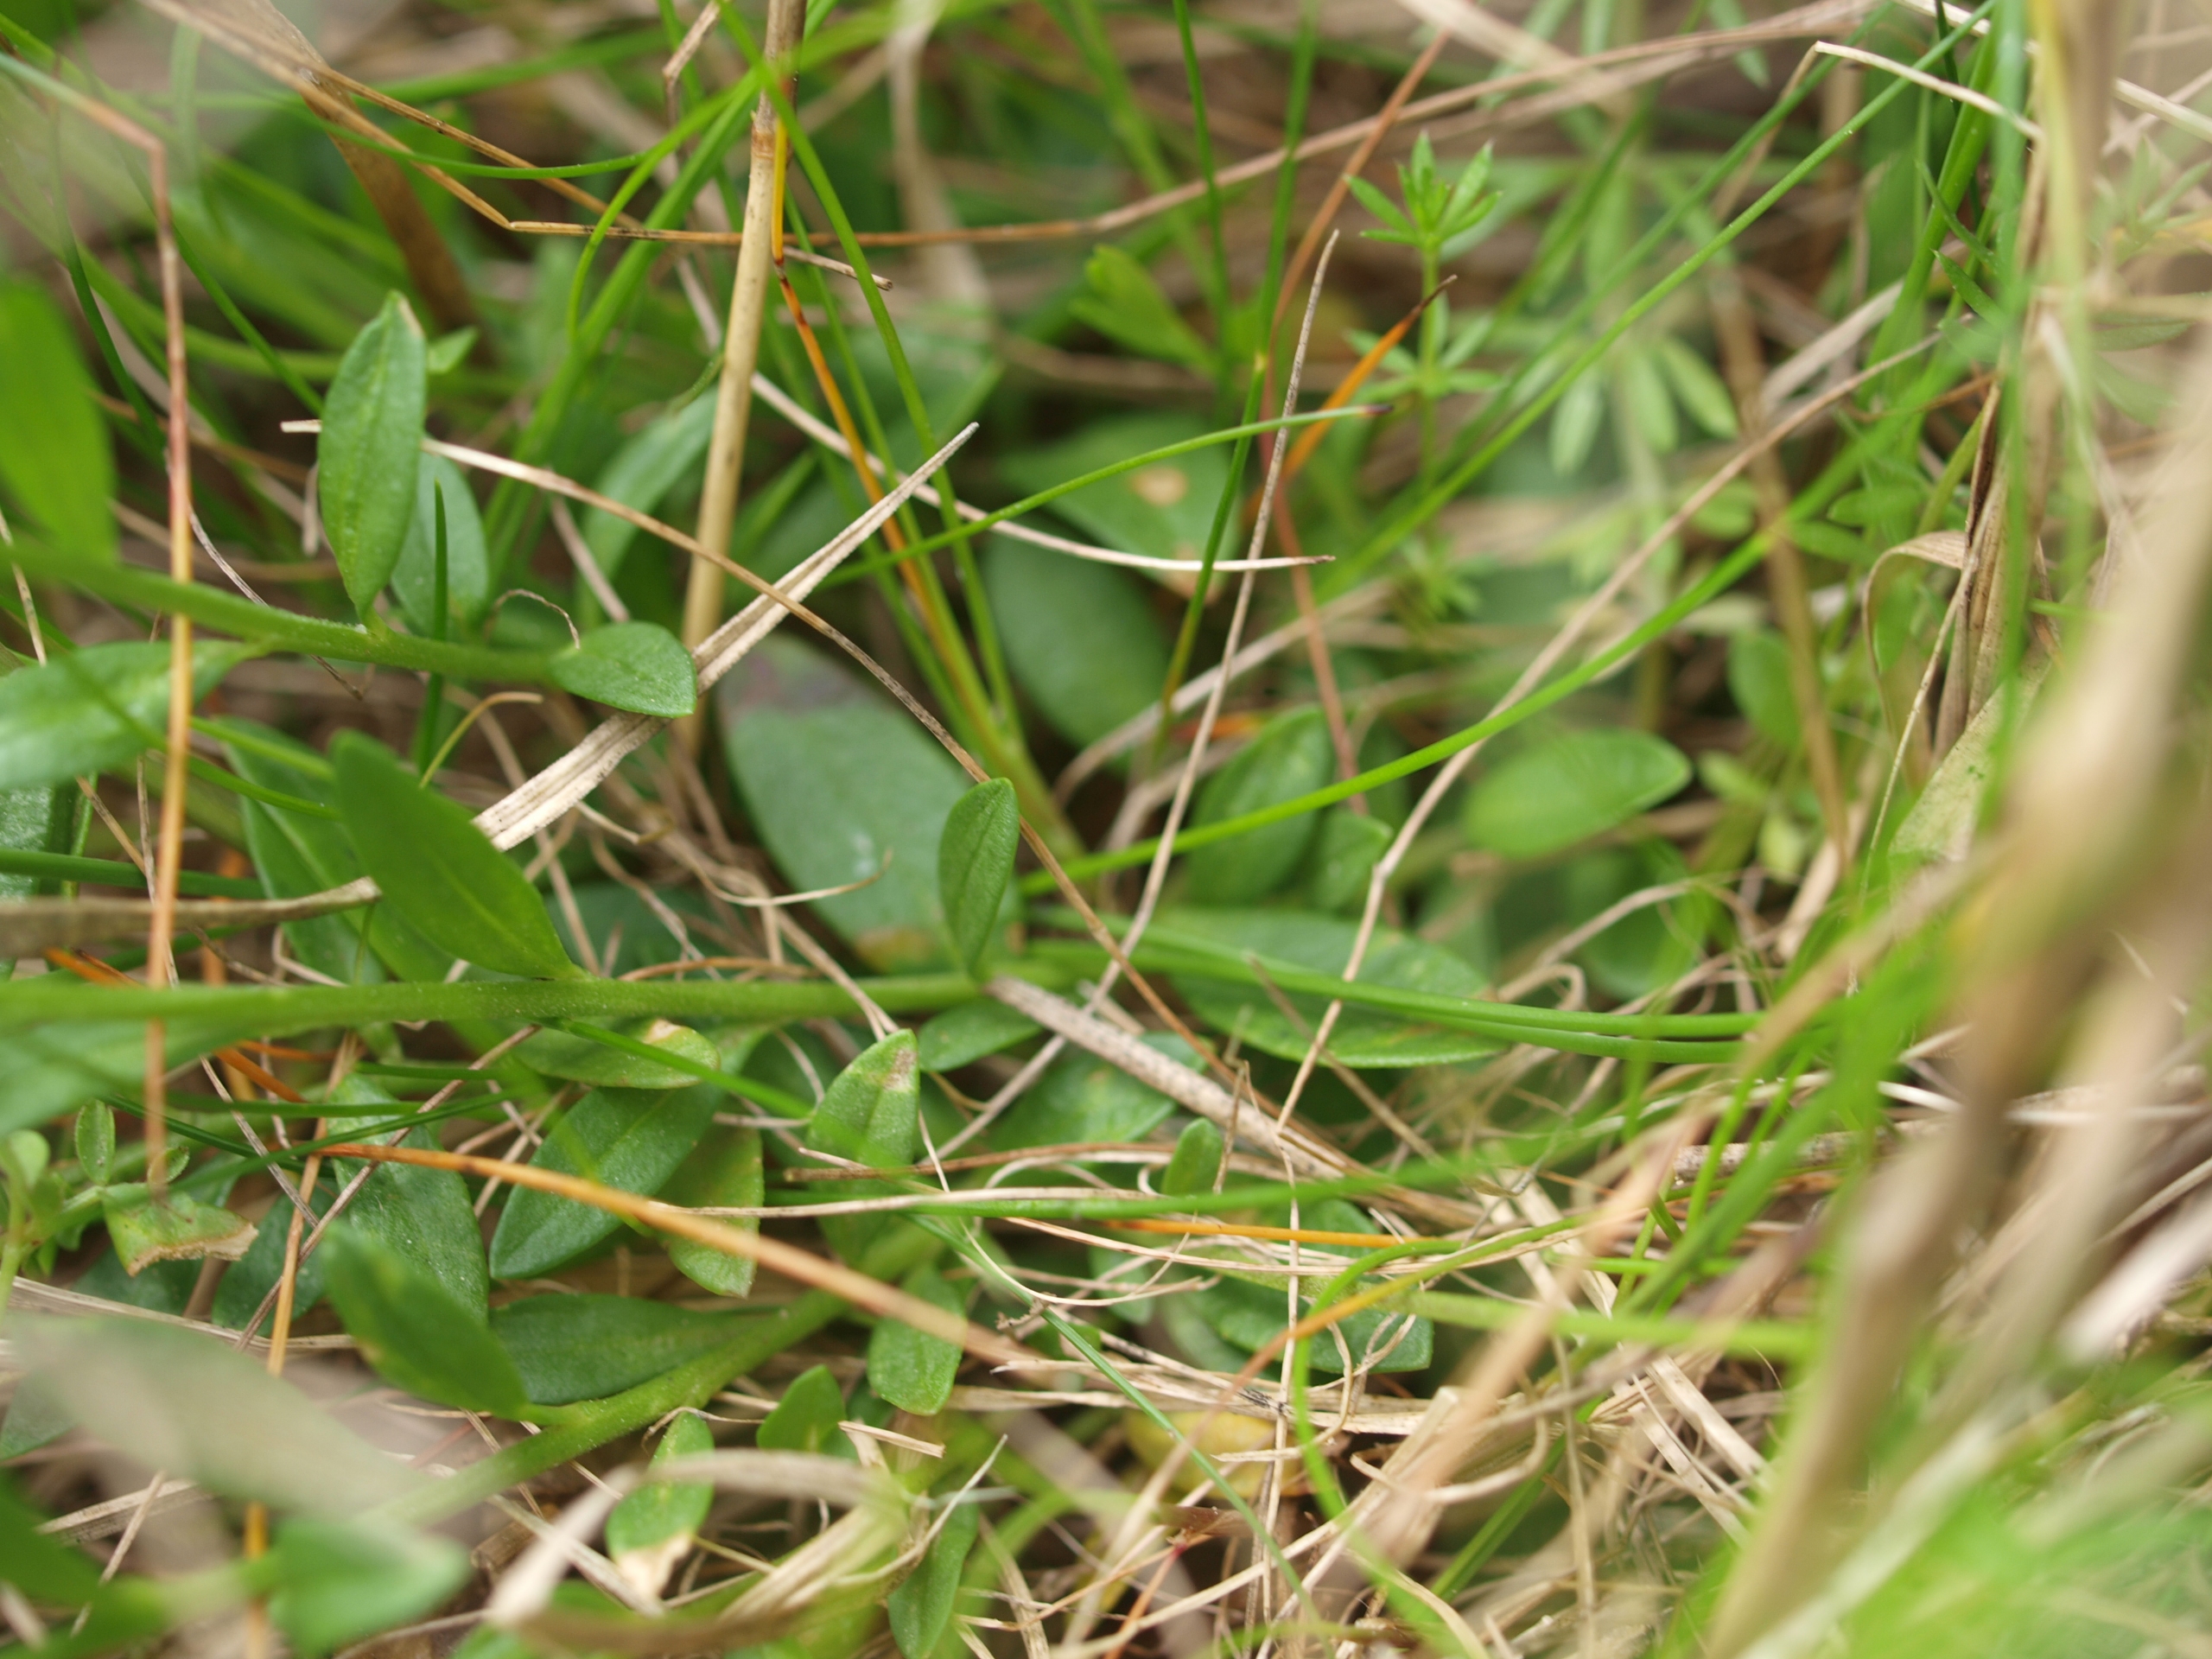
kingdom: Plantae
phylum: Tracheophyta
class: Magnoliopsida
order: Fabales
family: Polygalaceae
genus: Polygala
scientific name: Polygala vulgaris
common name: Almindelig mælkeurt
